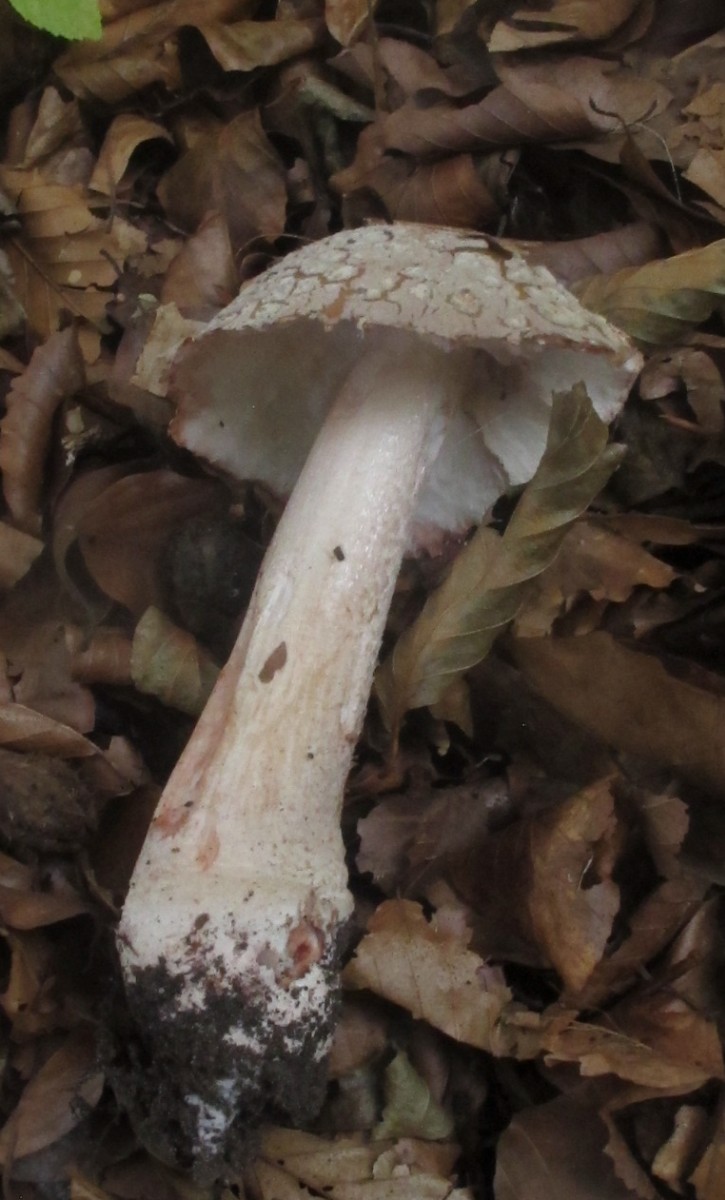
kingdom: Fungi
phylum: Basidiomycota
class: Agaricomycetes
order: Agaricales
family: Amanitaceae
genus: Amanita
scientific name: Amanita rubescens
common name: rødmende fluesvamp
